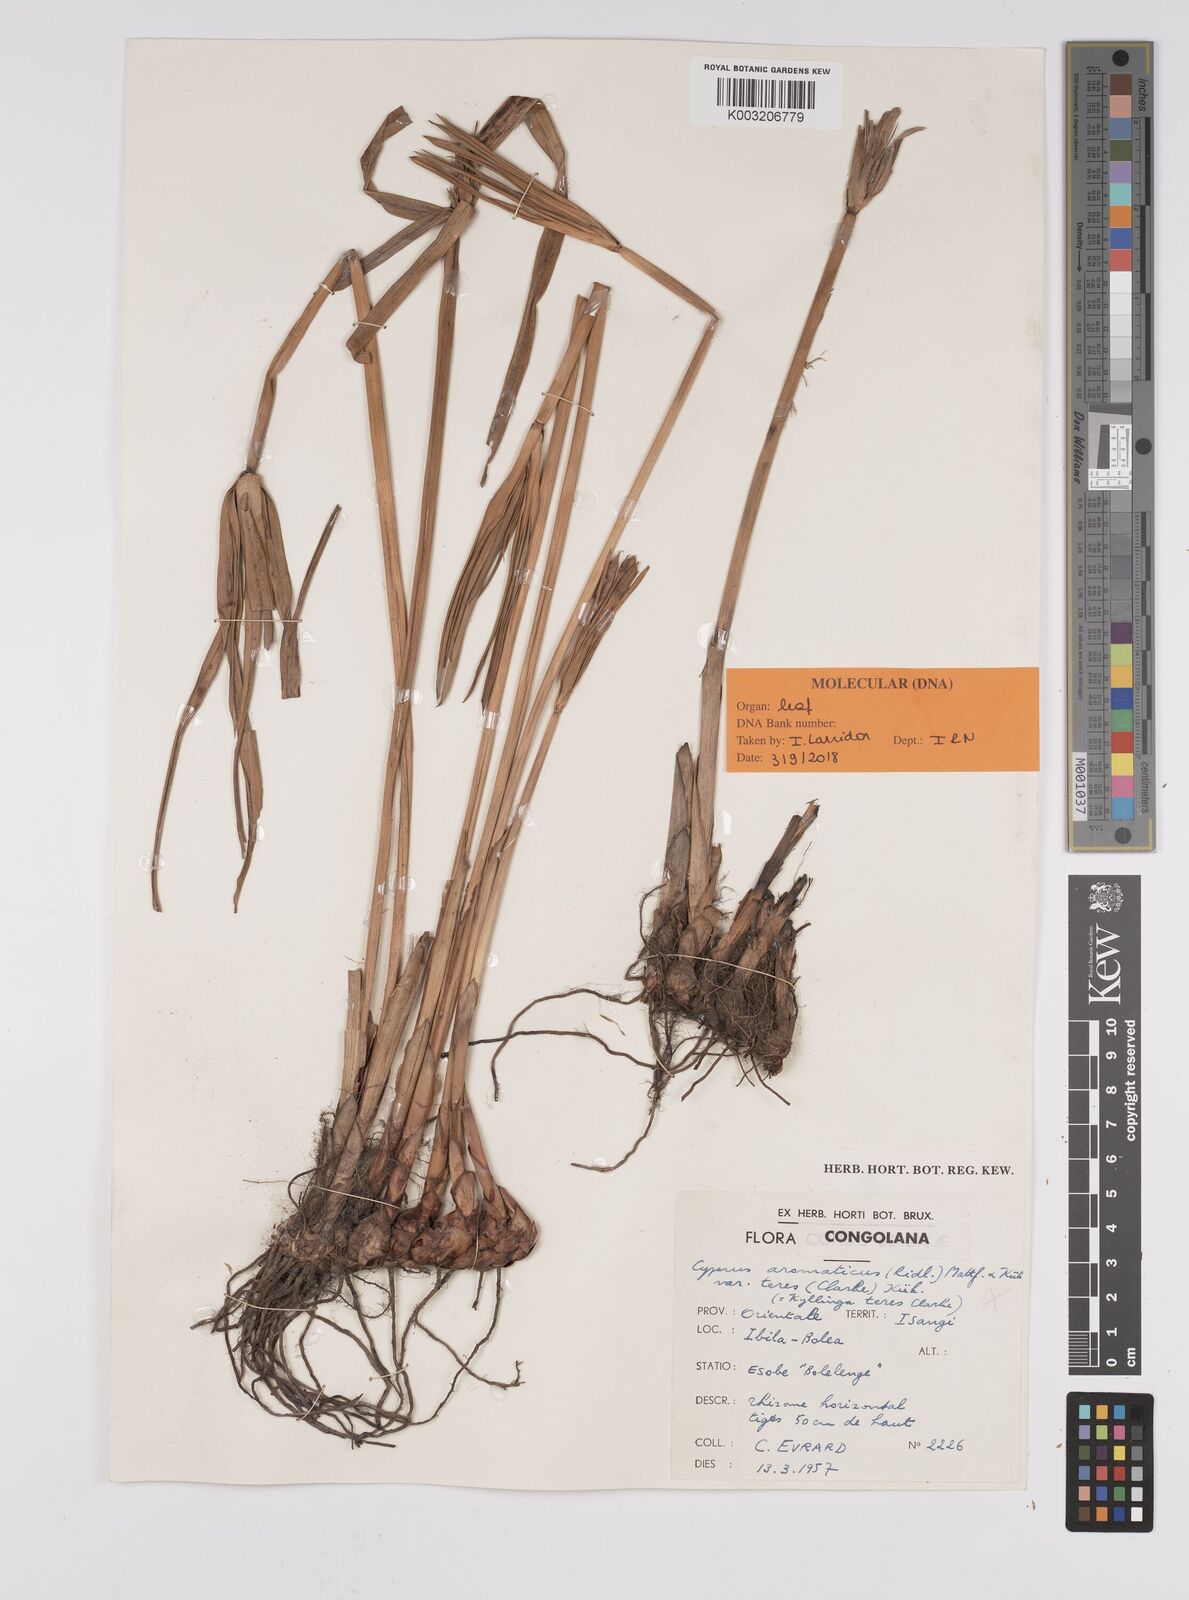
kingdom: Plantae
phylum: Tracheophyta
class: Liliopsida
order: Poales
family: Cyperaceae
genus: Cyperus
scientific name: Cyperus
